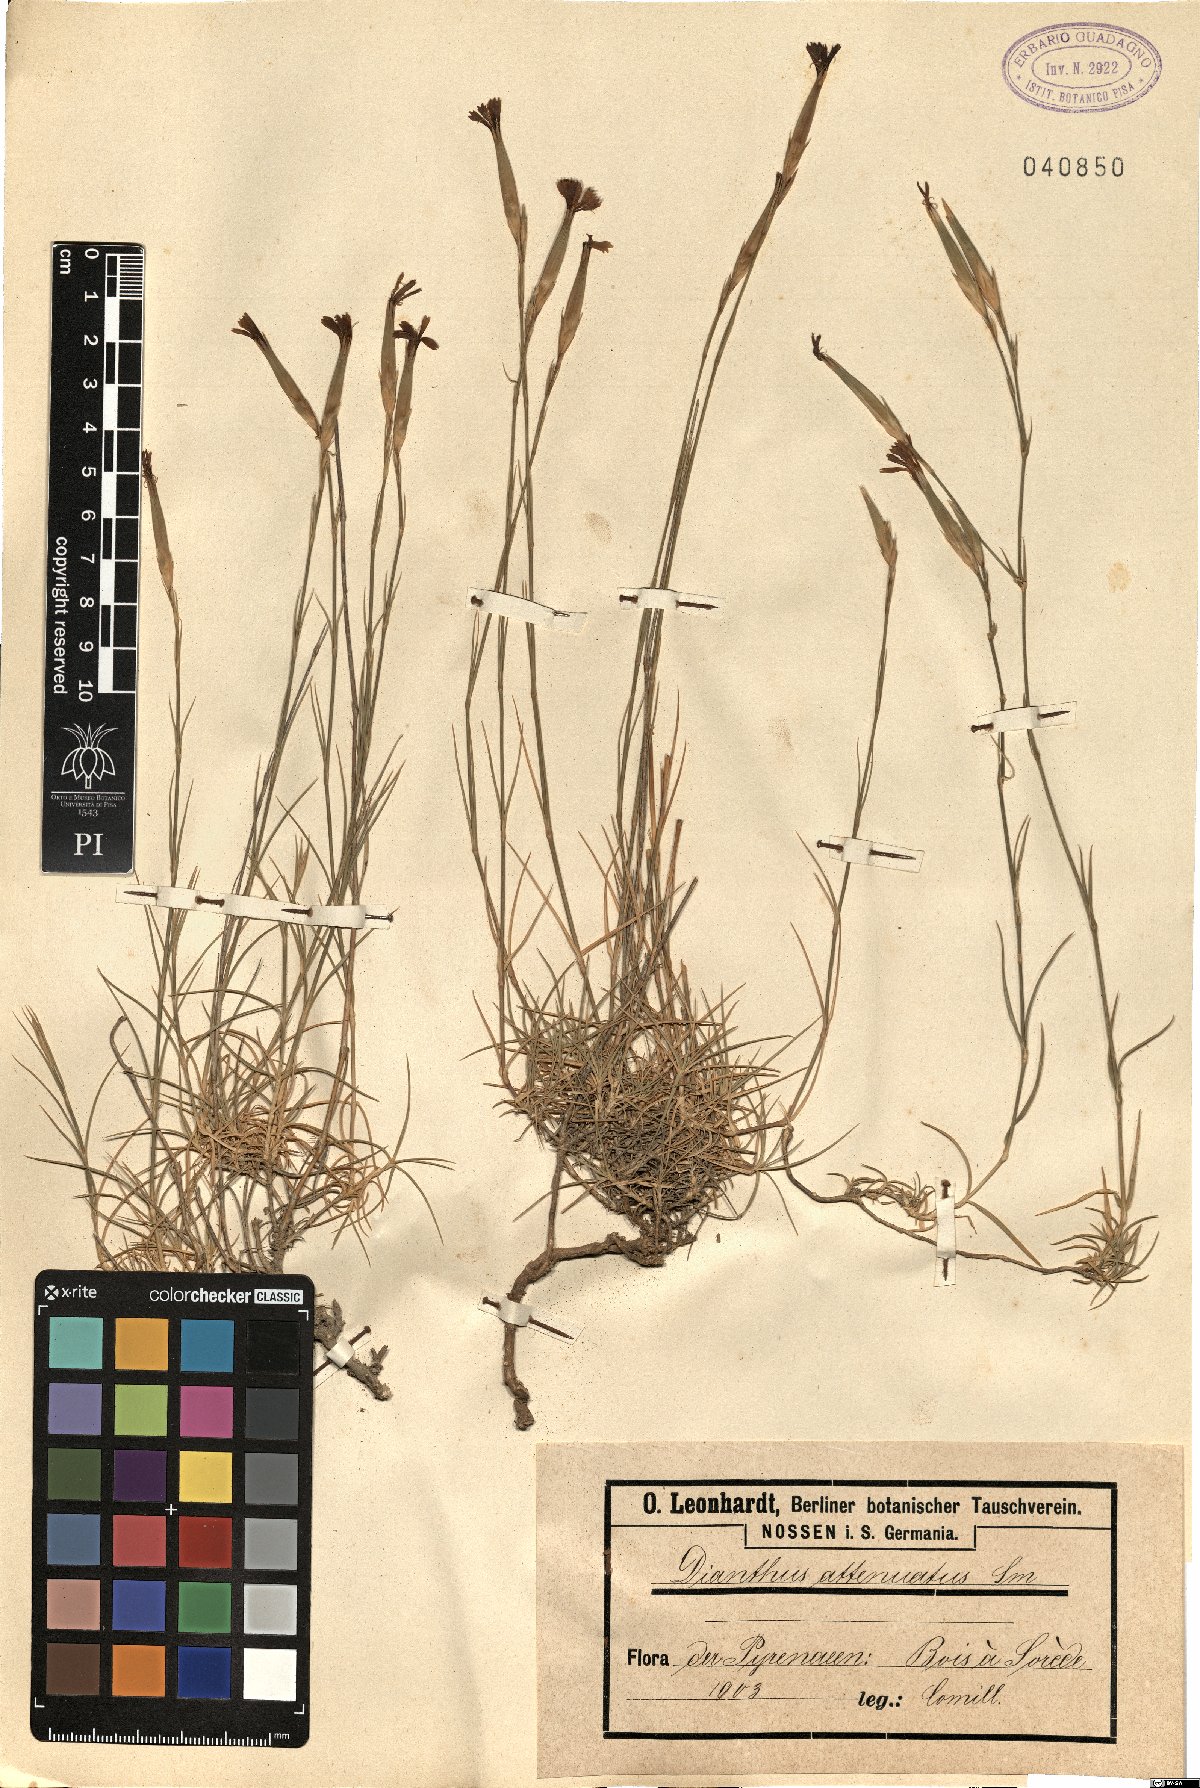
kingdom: Plantae
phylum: Tracheophyta
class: Magnoliopsida
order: Caryophyllales
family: Caryophyllaceae
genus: Dianthus
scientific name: Dianthus pyrenaicus
